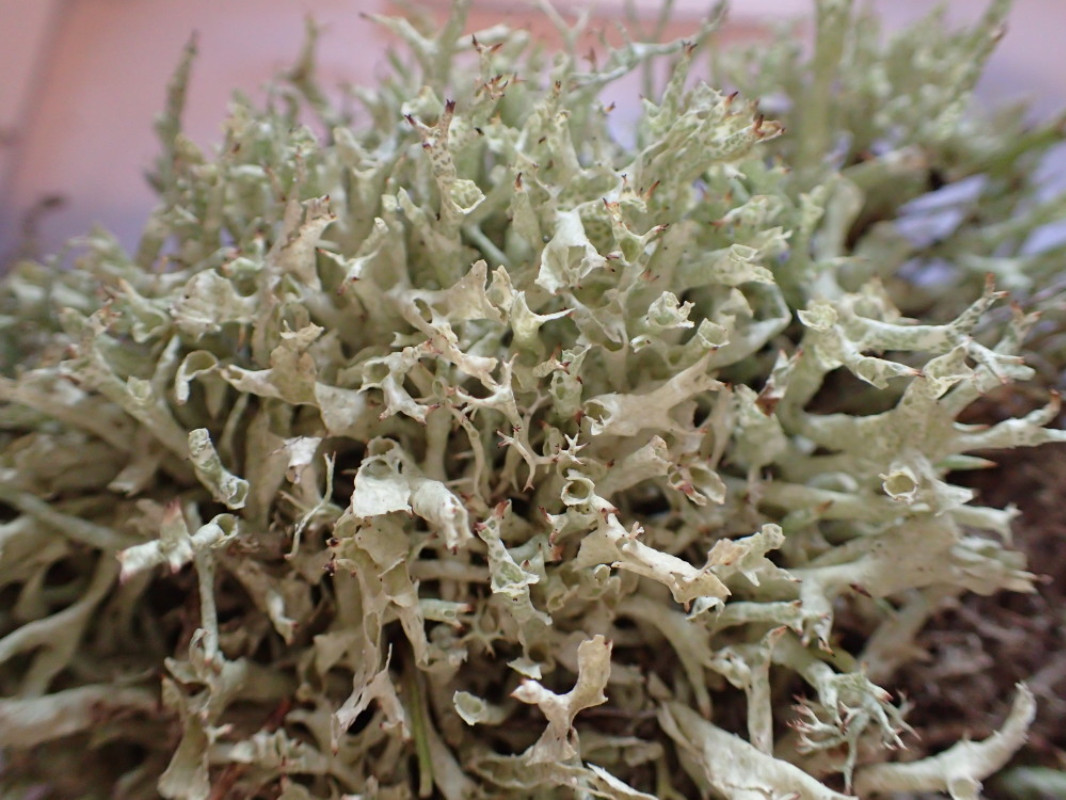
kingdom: Fungi
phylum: Ascomycota
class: Lecanoromycetes
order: Lecanorales
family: Cladoniaceae
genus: Cladonia
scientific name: Cladonia uncialis
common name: pigget bægerlav
